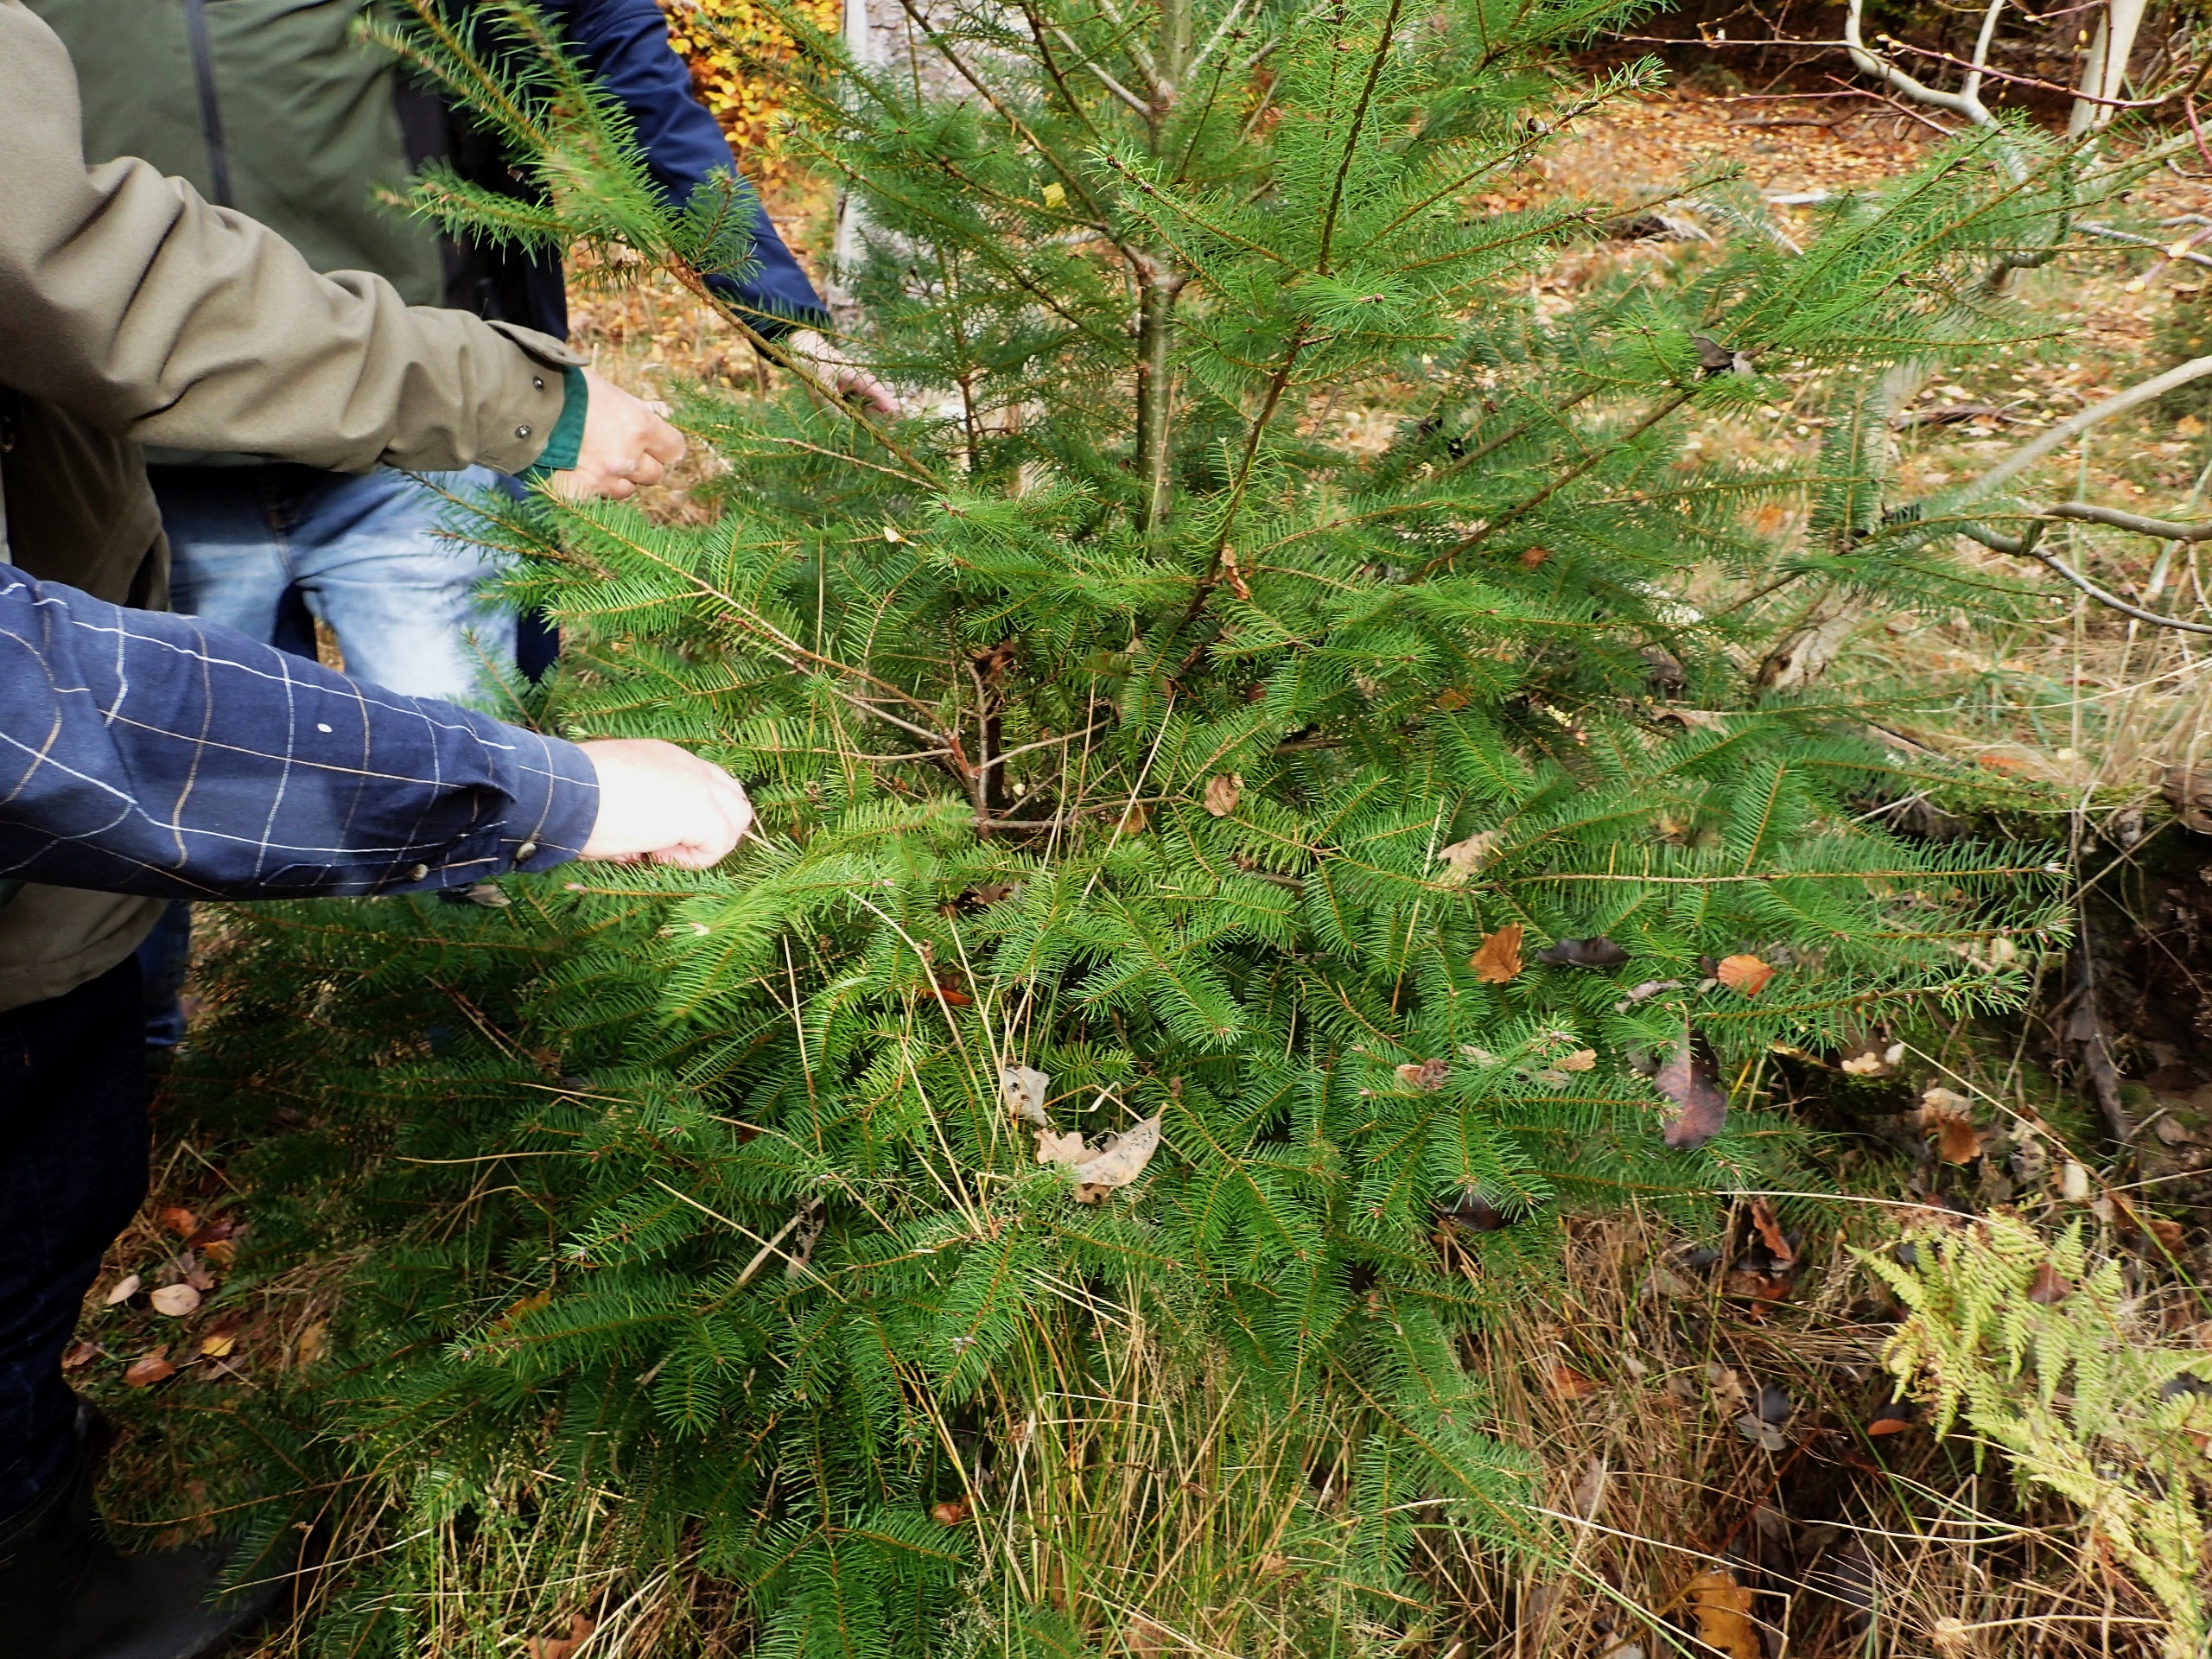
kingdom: Plantae
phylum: Tracheophyta
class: Pinopsida
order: Pinales
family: Pinaceae
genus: Pseudotsuga
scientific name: Pseudotsuga menziesii
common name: Douglasgran
